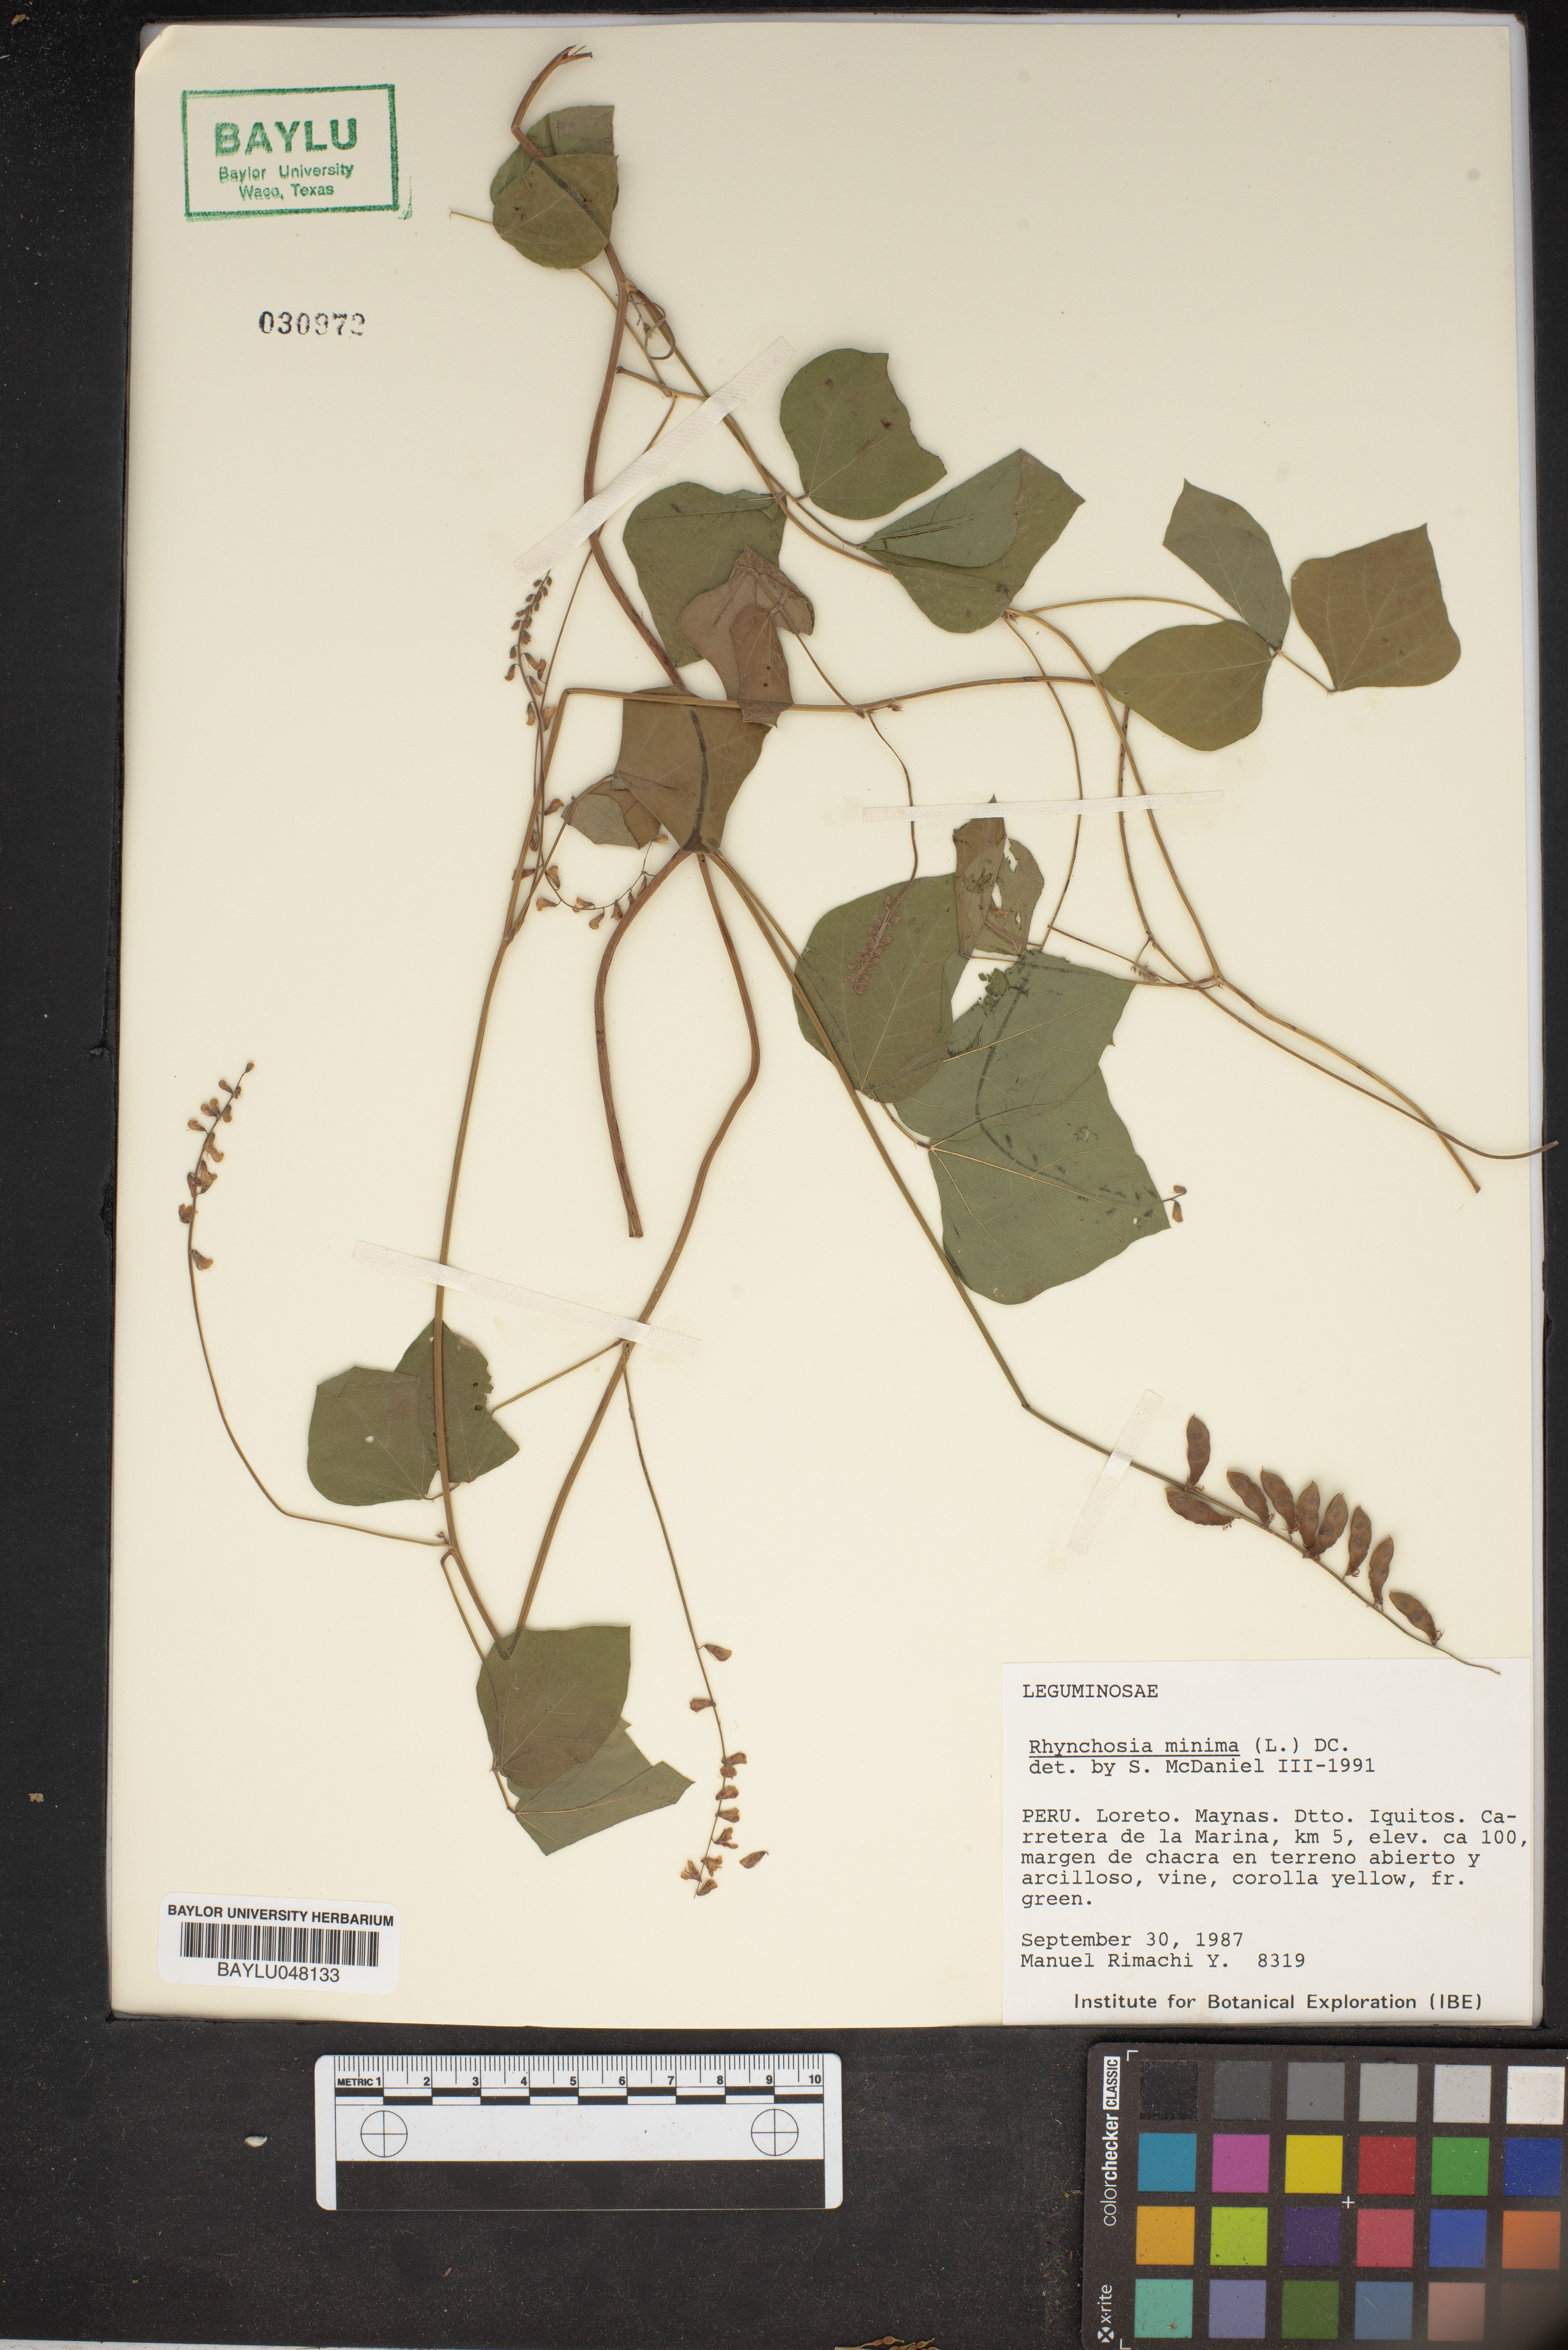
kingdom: Plantae
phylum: Tracheophyta
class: Magnoliopsida
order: Fabales
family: Fabaceae
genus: Rhynchosia
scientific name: Rhynchosia minima
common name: Least snoutbean
